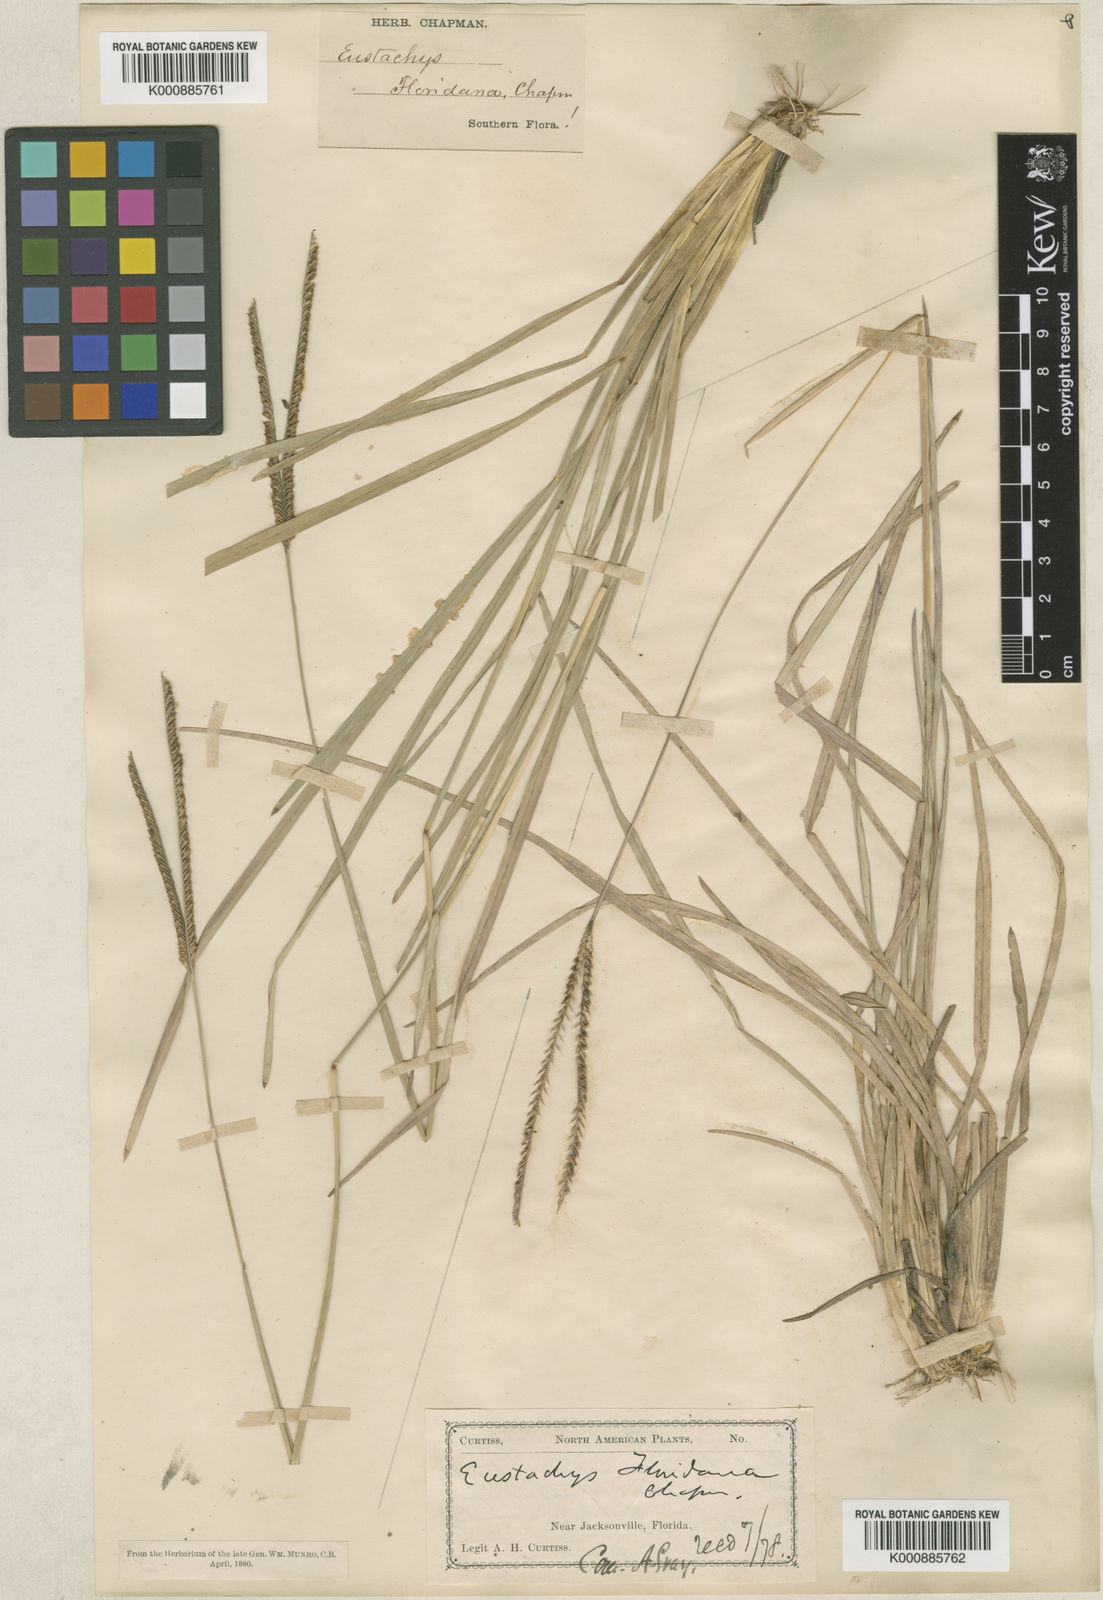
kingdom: Plantae
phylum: Tracheophyta
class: Liliopsida
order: Poales
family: Poaceae
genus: Eustachys
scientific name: Eustachys floridana
